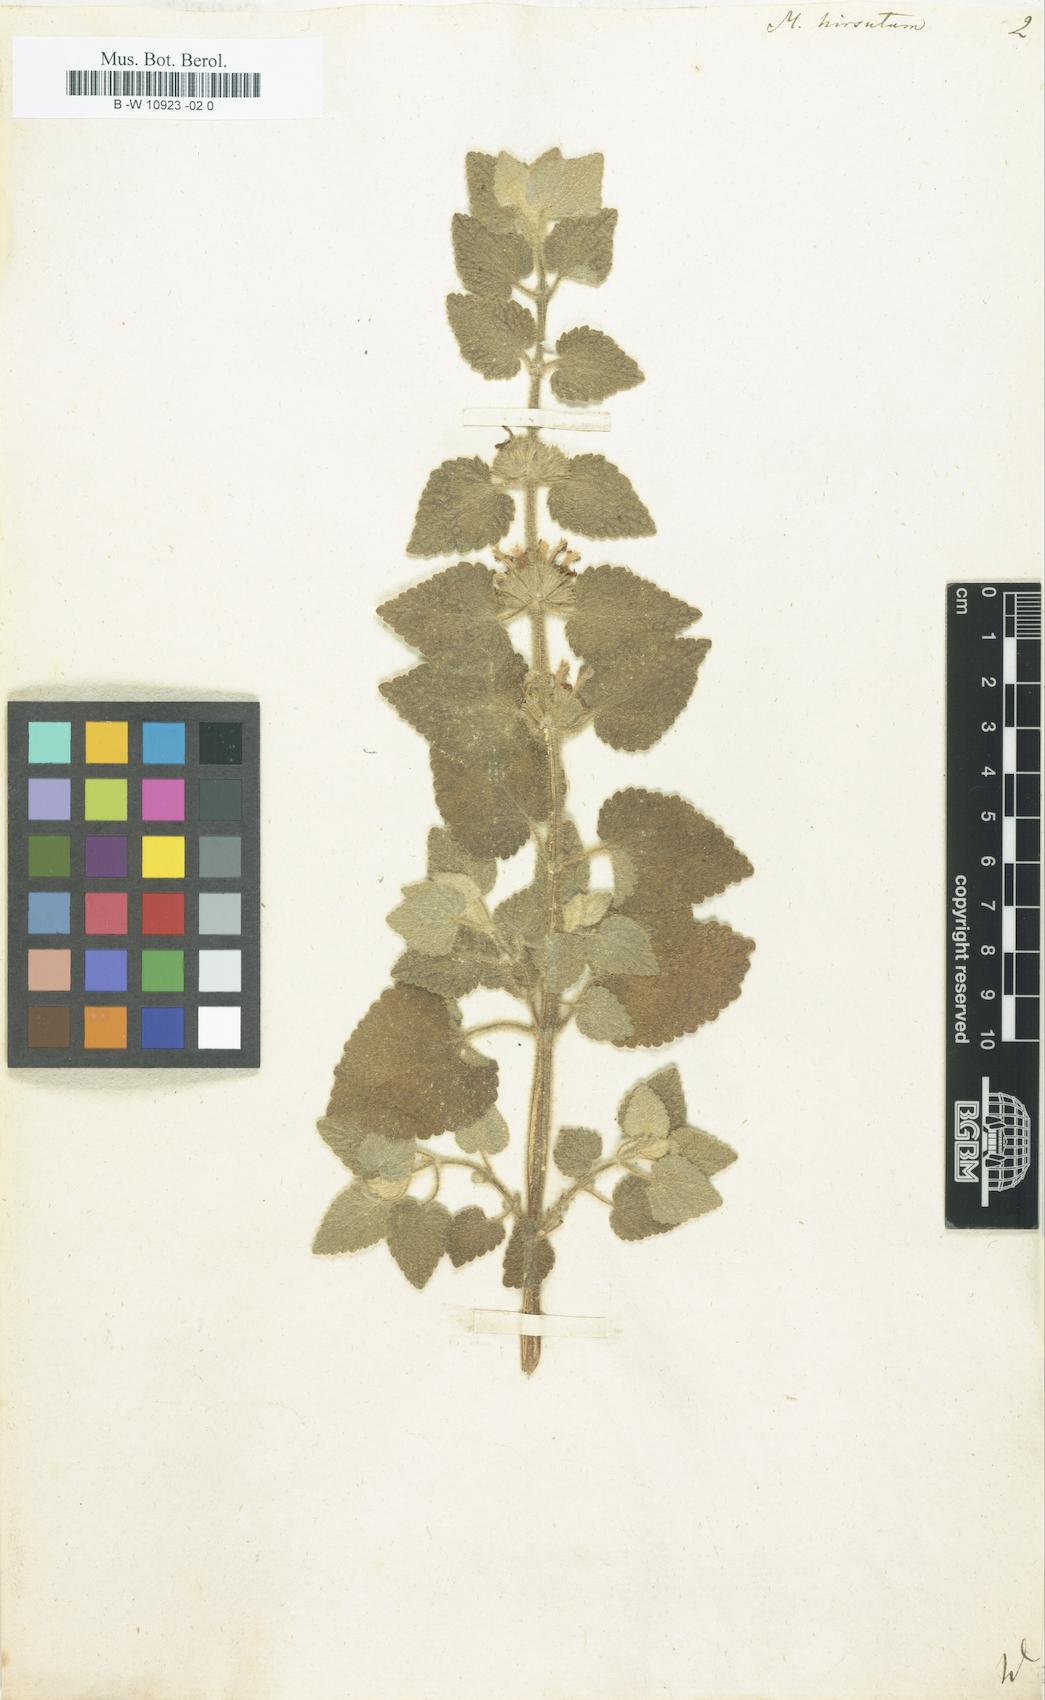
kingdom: Plantae
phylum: Tracheophyta
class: Magnoliopsida
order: Lamiales
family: Lamiaceae
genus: Pseudodictamnus
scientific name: Pseudodictamnus hirsutus
